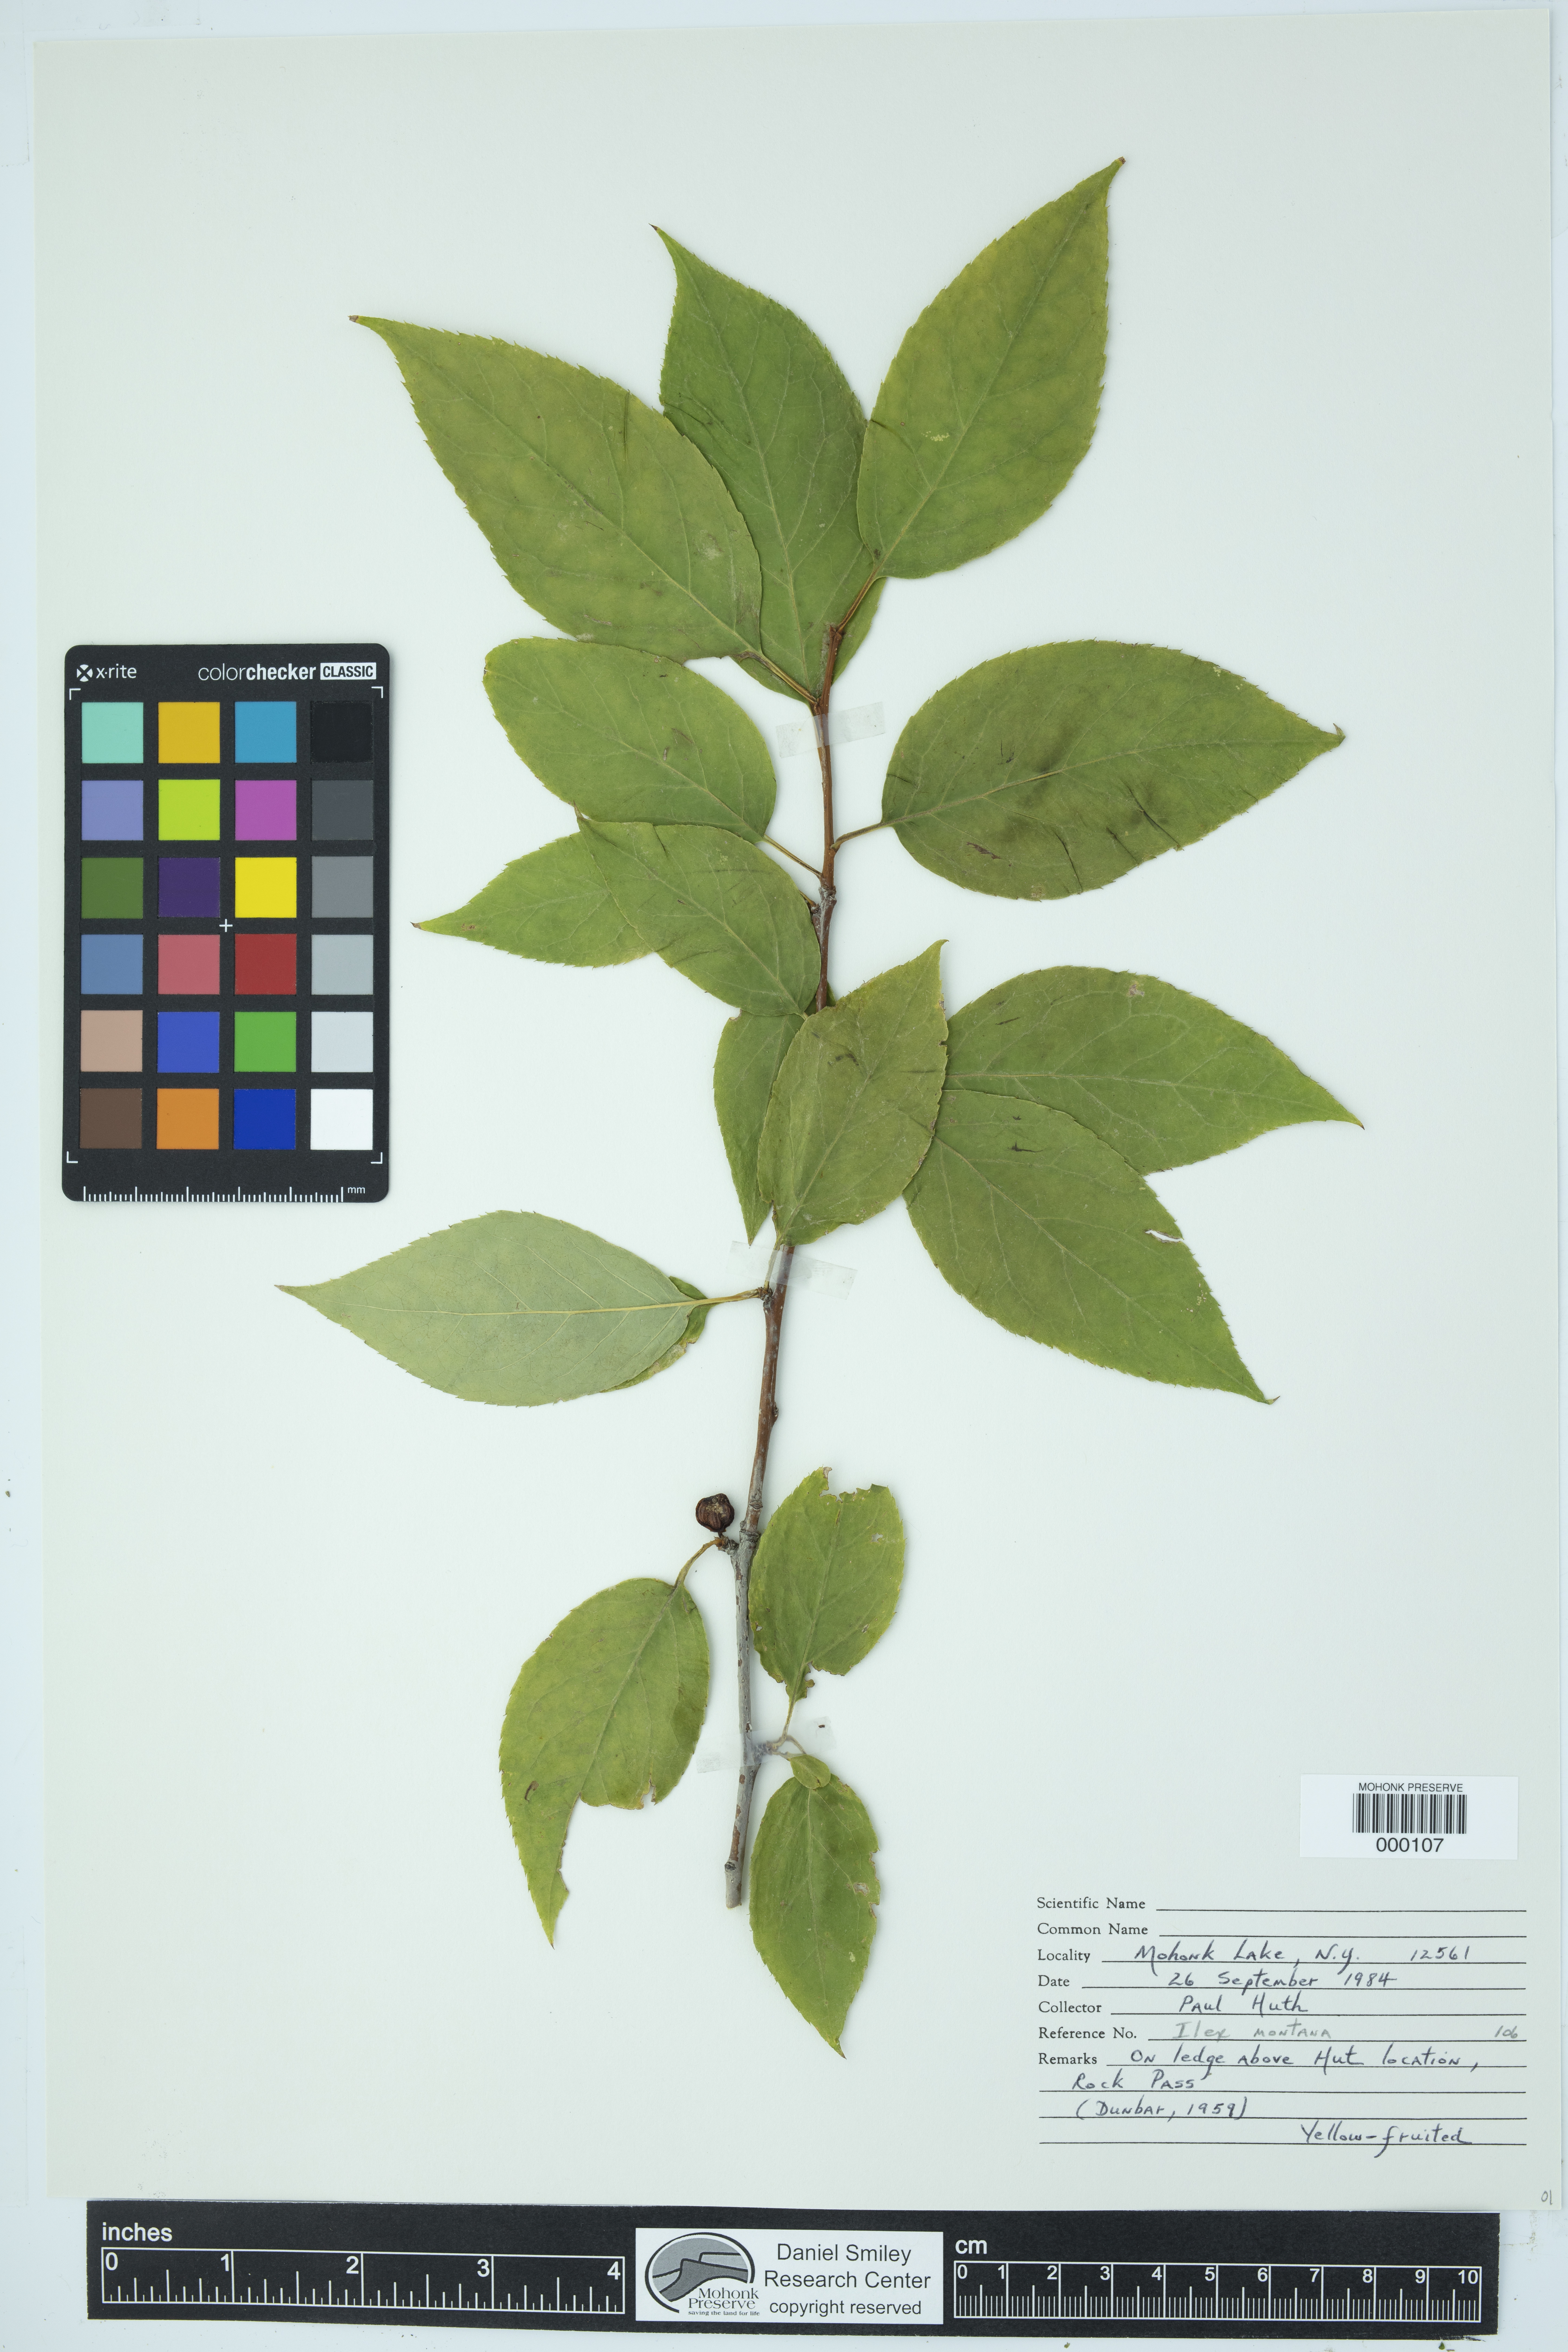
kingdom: Plantae
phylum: Tracheophyta
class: Magnoliopsida
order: Aquifoliales
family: Aquifoliaceae
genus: Ilex
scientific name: Ilex montana
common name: Mountain winterberry
